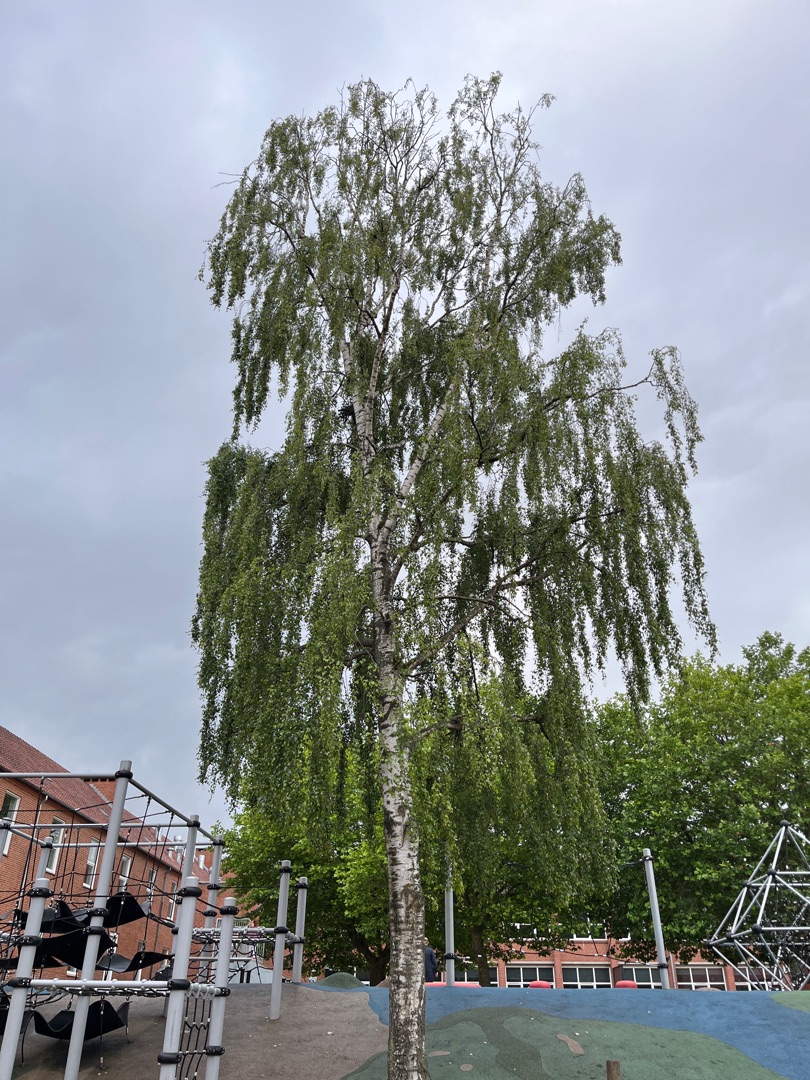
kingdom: Plantae
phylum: Tracheophyta
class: Magnoliopsida
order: Fagales
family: Betulaceae
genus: Betula
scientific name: Betula pendula
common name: Vorte-birk
